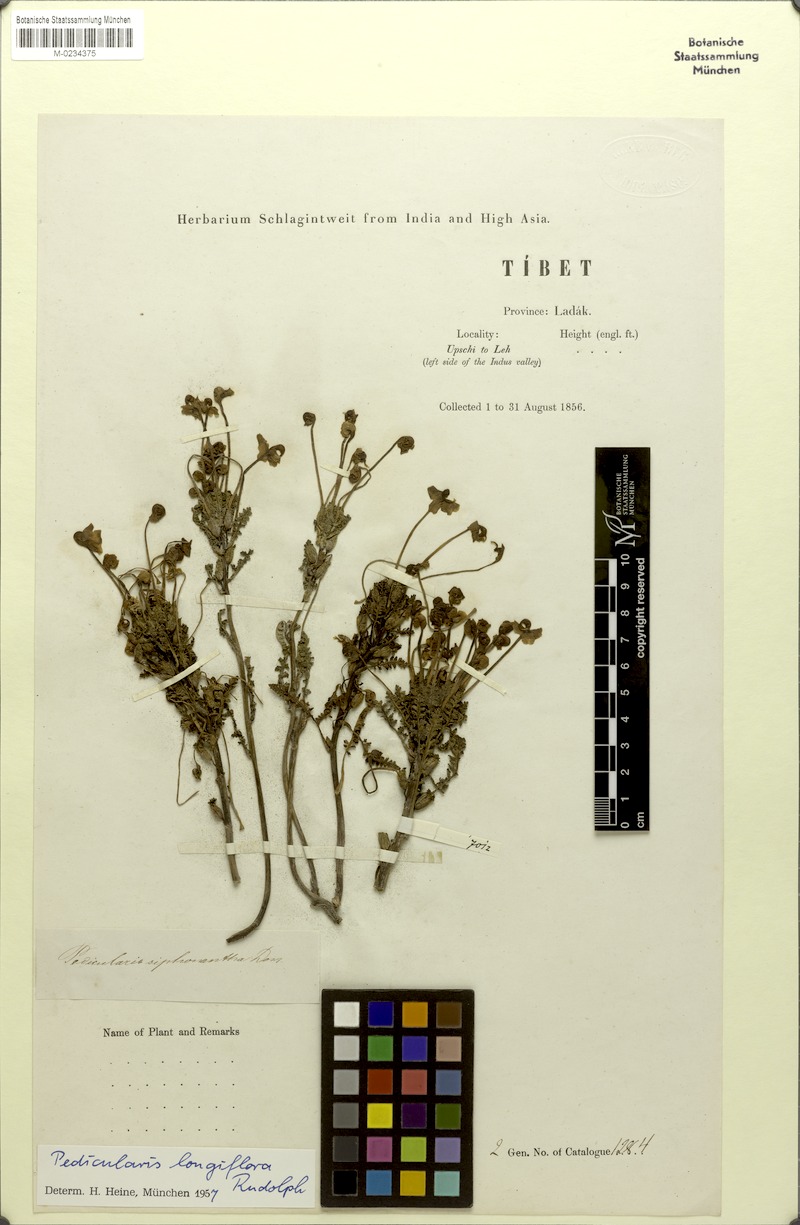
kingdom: Plantae
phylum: Tracheophyta
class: Magnoliopsida
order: Lamiales
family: Orobanchaceae
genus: Pedicularis
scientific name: Pedicularis longiflora
